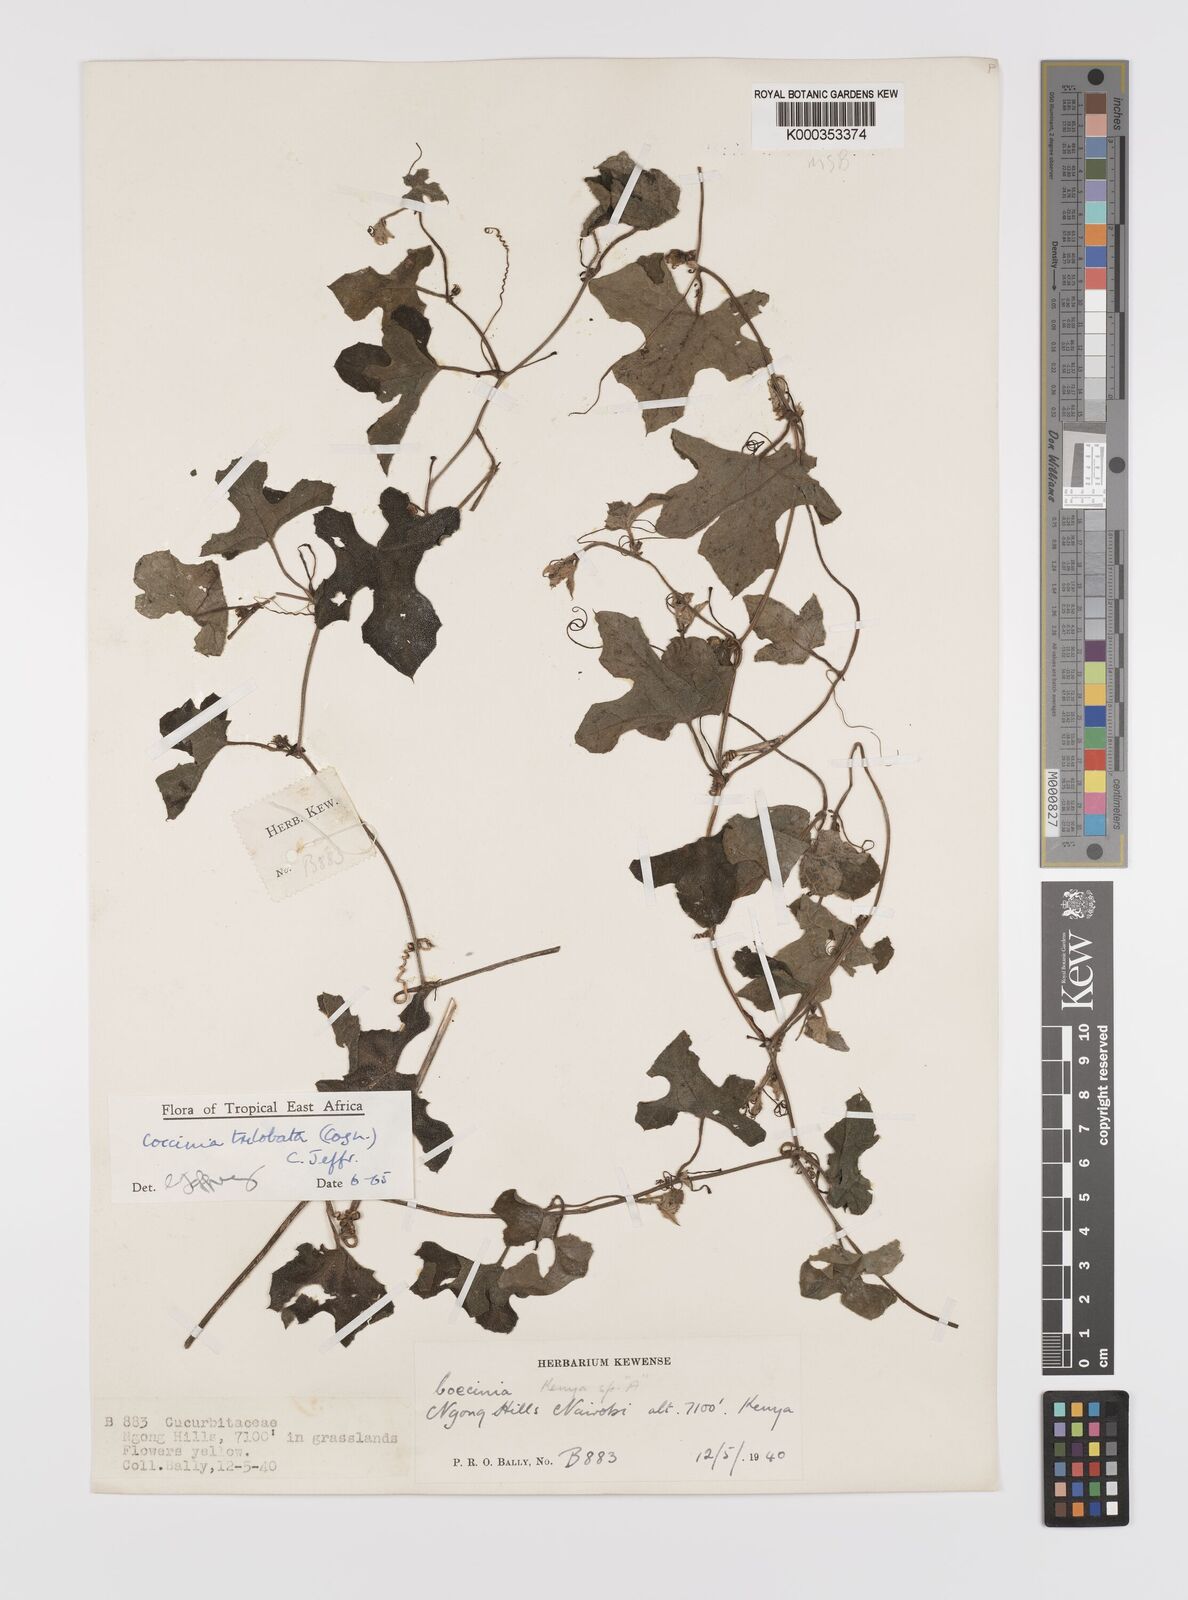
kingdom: Plantae
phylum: Tracheophyta
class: Magnoliopsida
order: Cucurbitales
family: Cucurbitaceae
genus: Coccinia
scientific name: Coccinia trilobata
